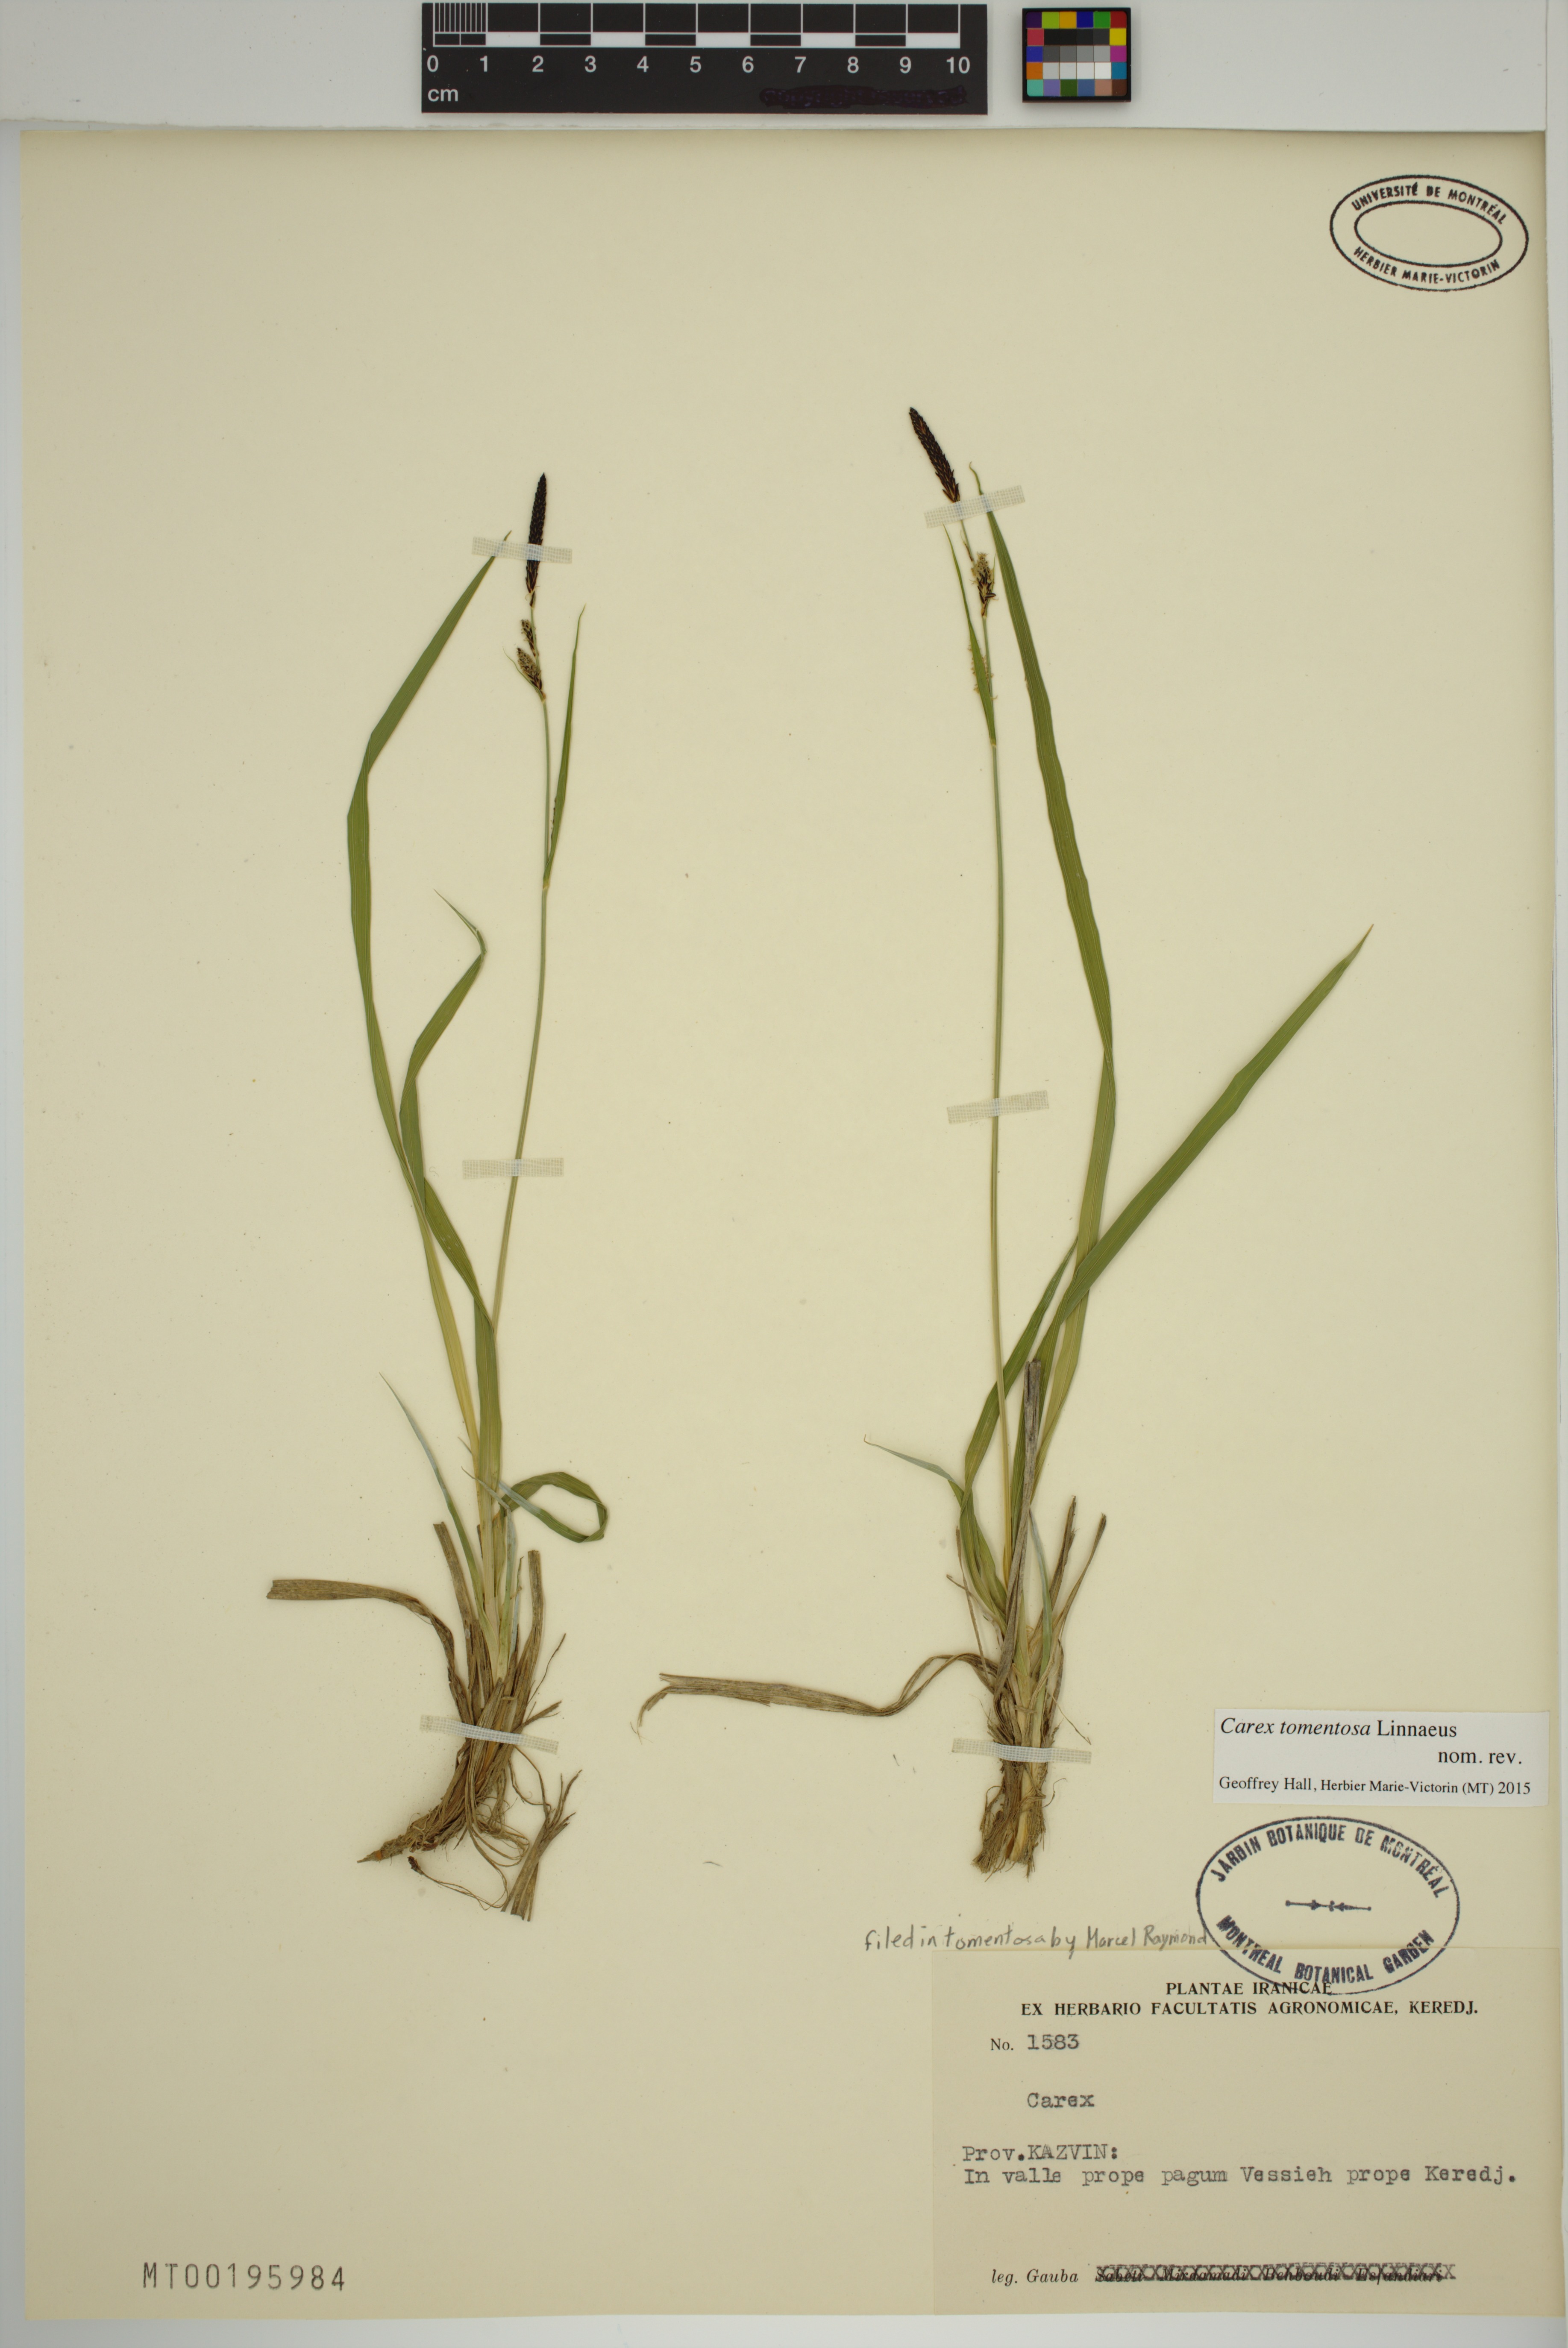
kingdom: Plantae
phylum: Tracheophyta
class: Liliopsida
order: Poales
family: Cyperaceae
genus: Carex
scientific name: Carex tomentosa
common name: Downy-fruited sedge
